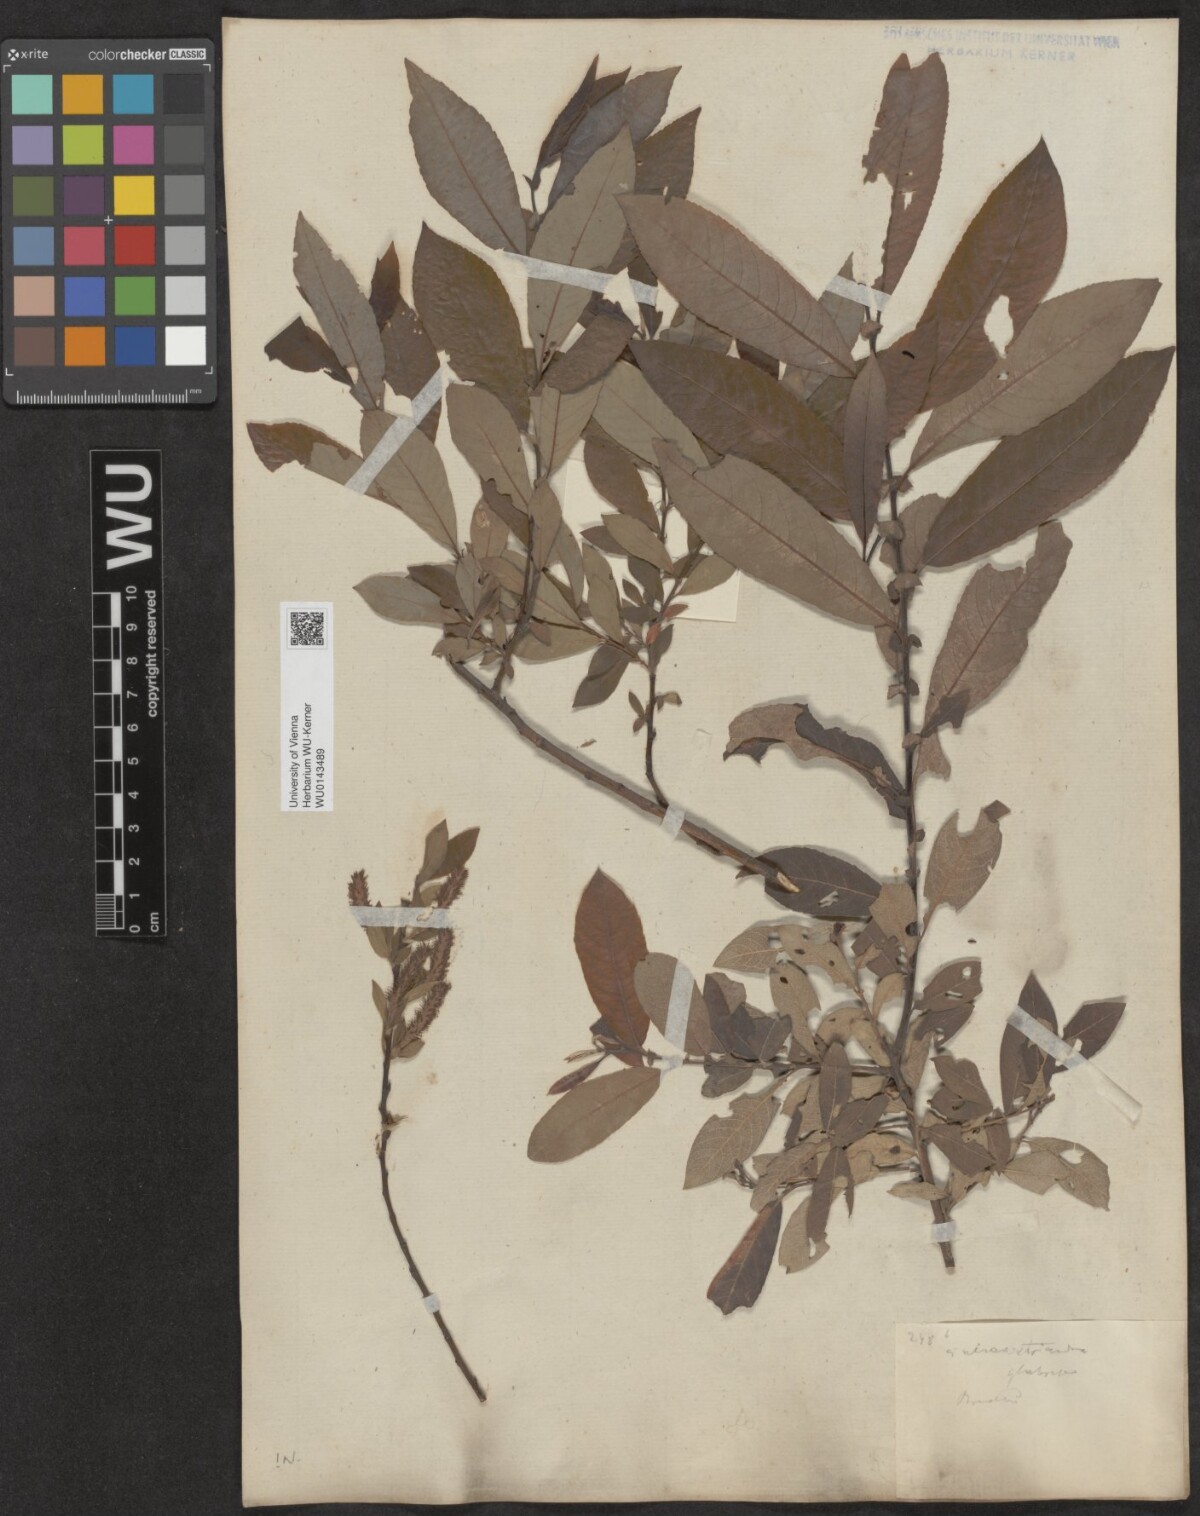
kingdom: Plantae
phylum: Tracheophyta
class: Magnoliopsida
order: Malpighiales
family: Salicaceae
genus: Salix
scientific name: Salix triandra
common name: Almond willow
